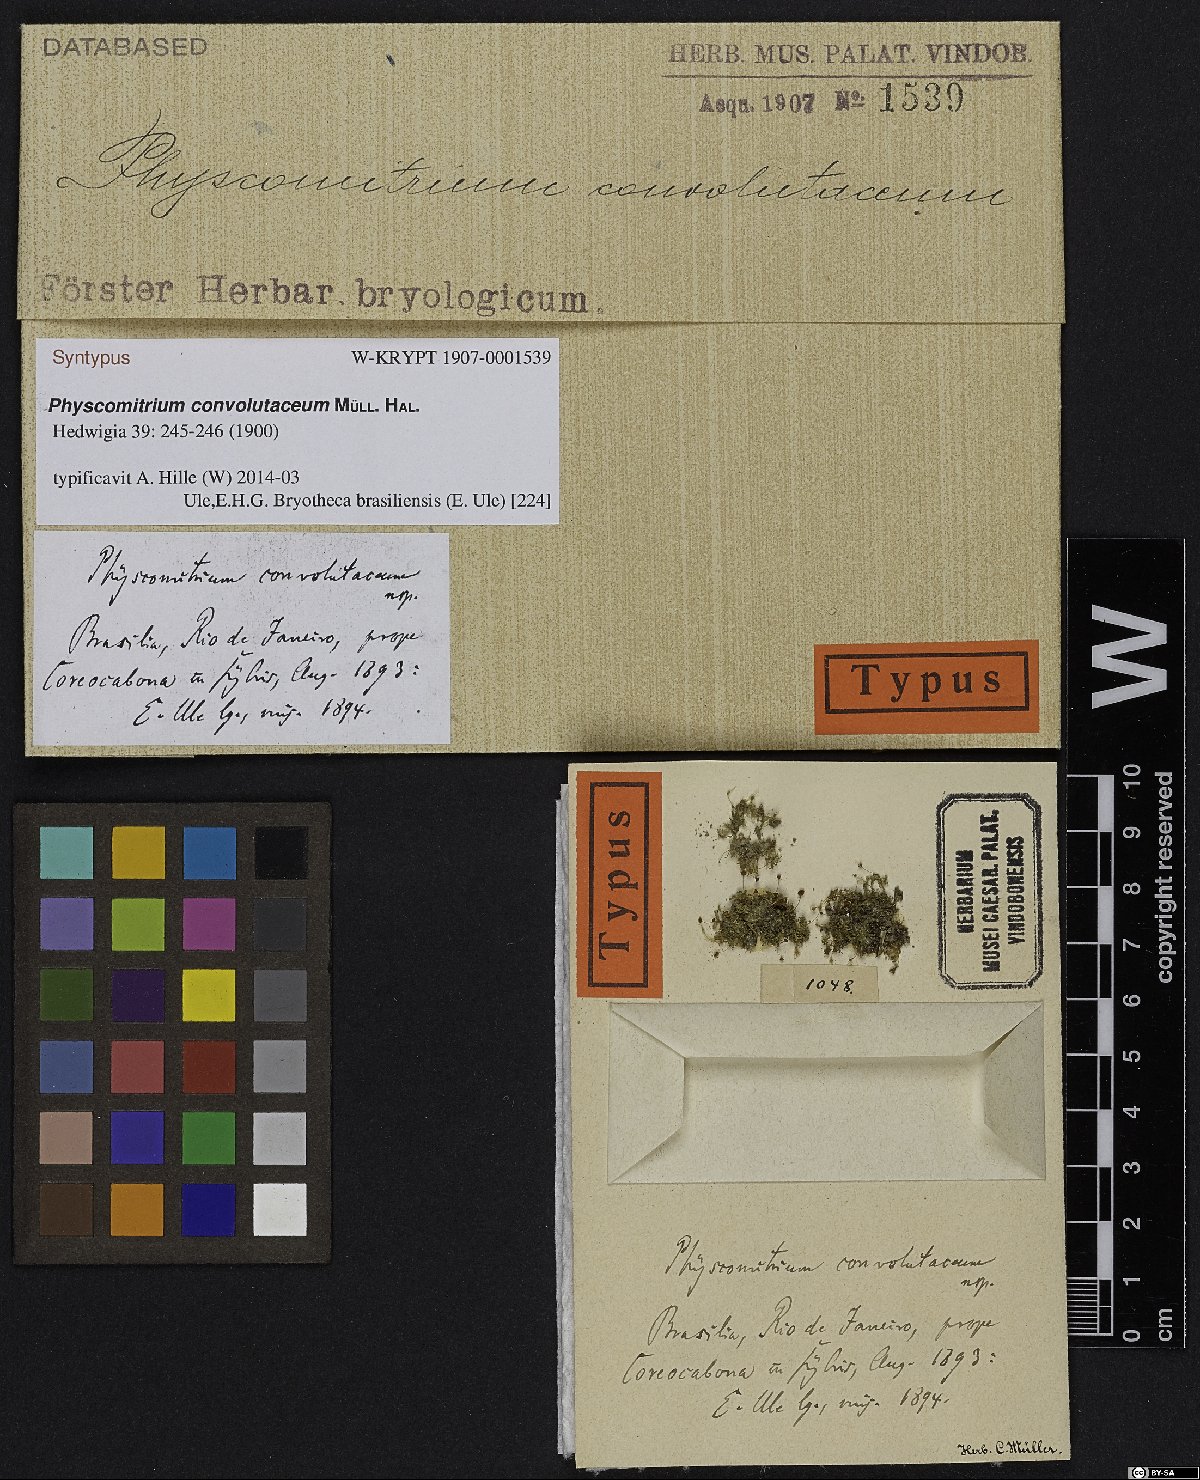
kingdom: Plantae
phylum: Bryophyta
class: Bryopsida
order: Funariales
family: Funariaceae
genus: Physcomitrium
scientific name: Physcomitrium thieleanum
